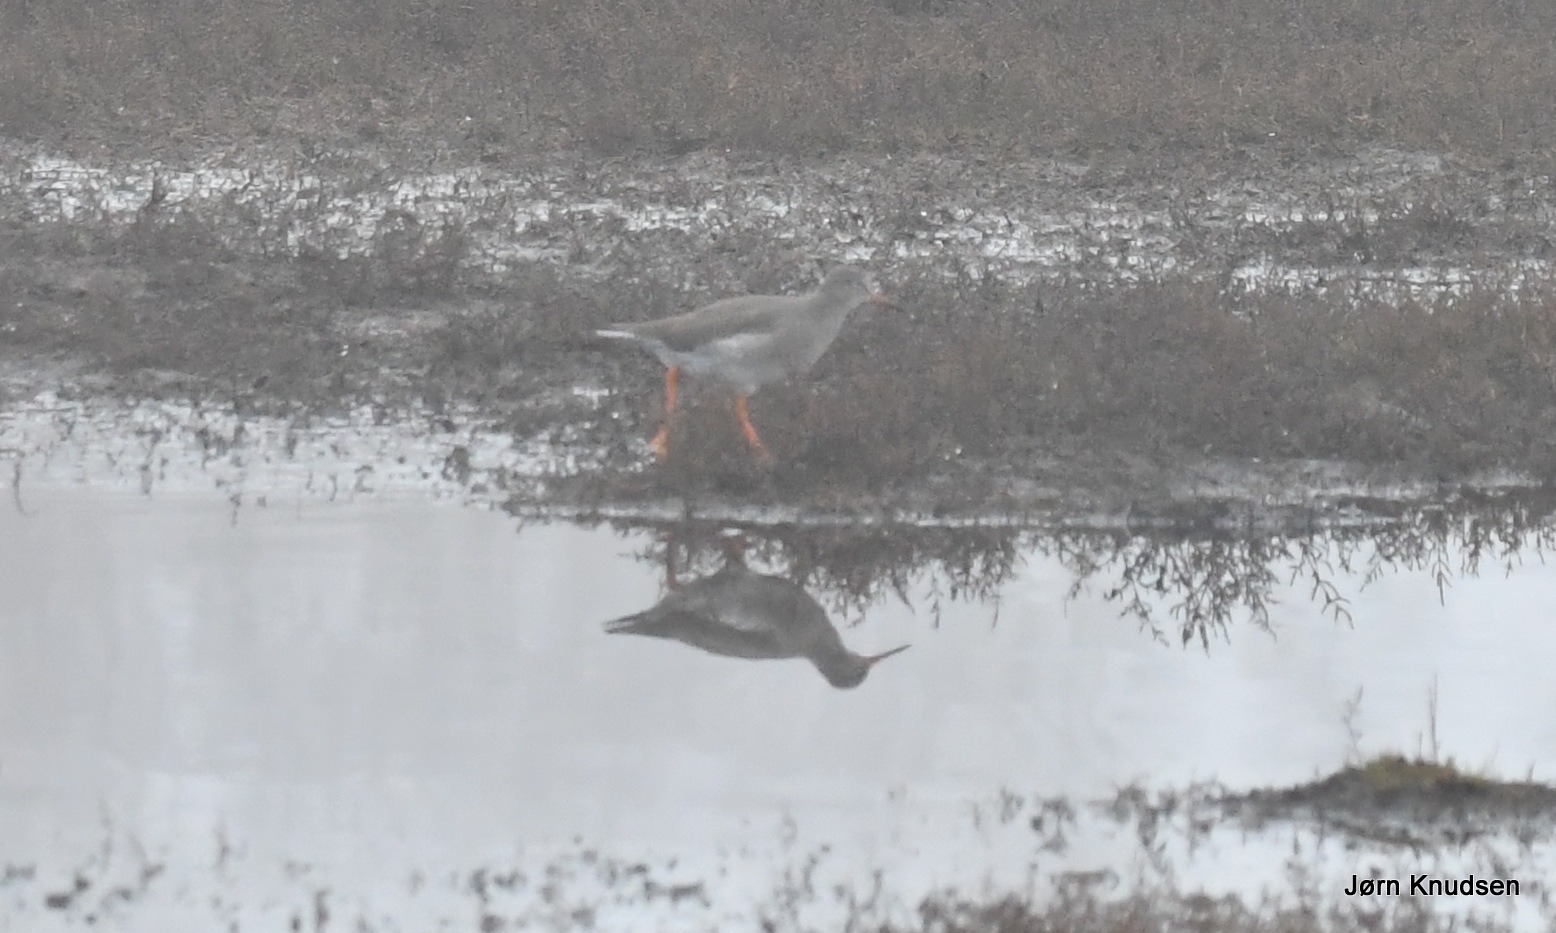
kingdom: Animalia
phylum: Chordata
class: Aves
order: Charadriiformes
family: Scolopacidae
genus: Tringa
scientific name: Tringa totanus
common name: Rødben
